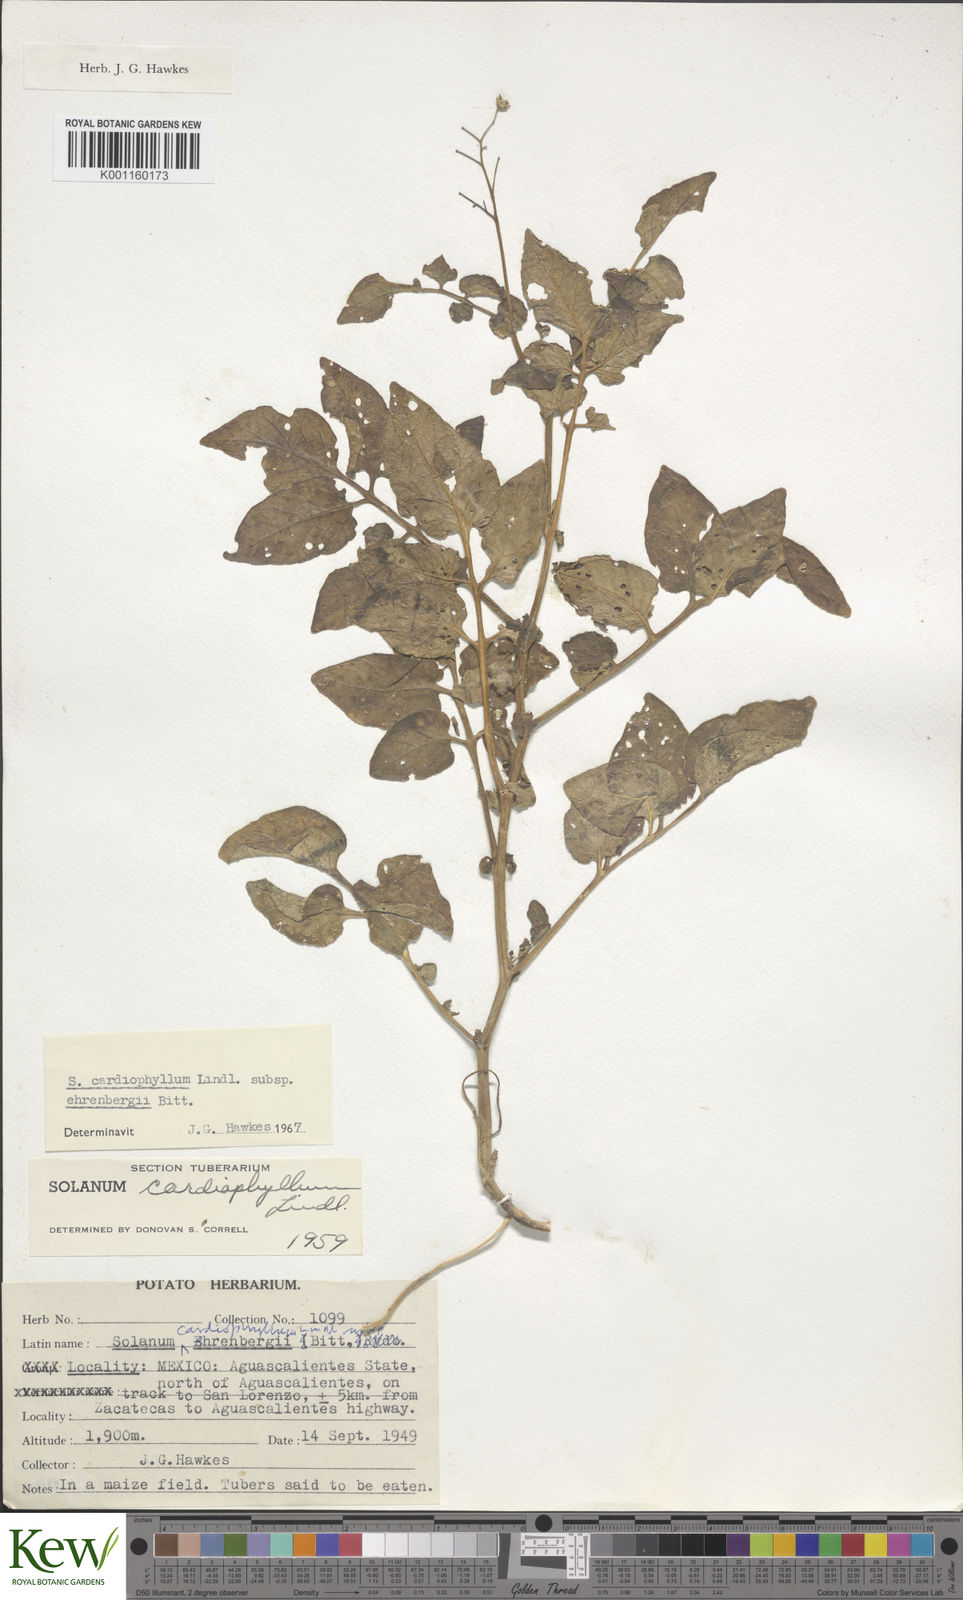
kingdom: Plantae
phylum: Tracheophyta
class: Magnoliopsida
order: Solanales
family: Solanaceae
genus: Solanum
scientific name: Solanum cardiophyllum
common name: Heartleaf horsenettle
